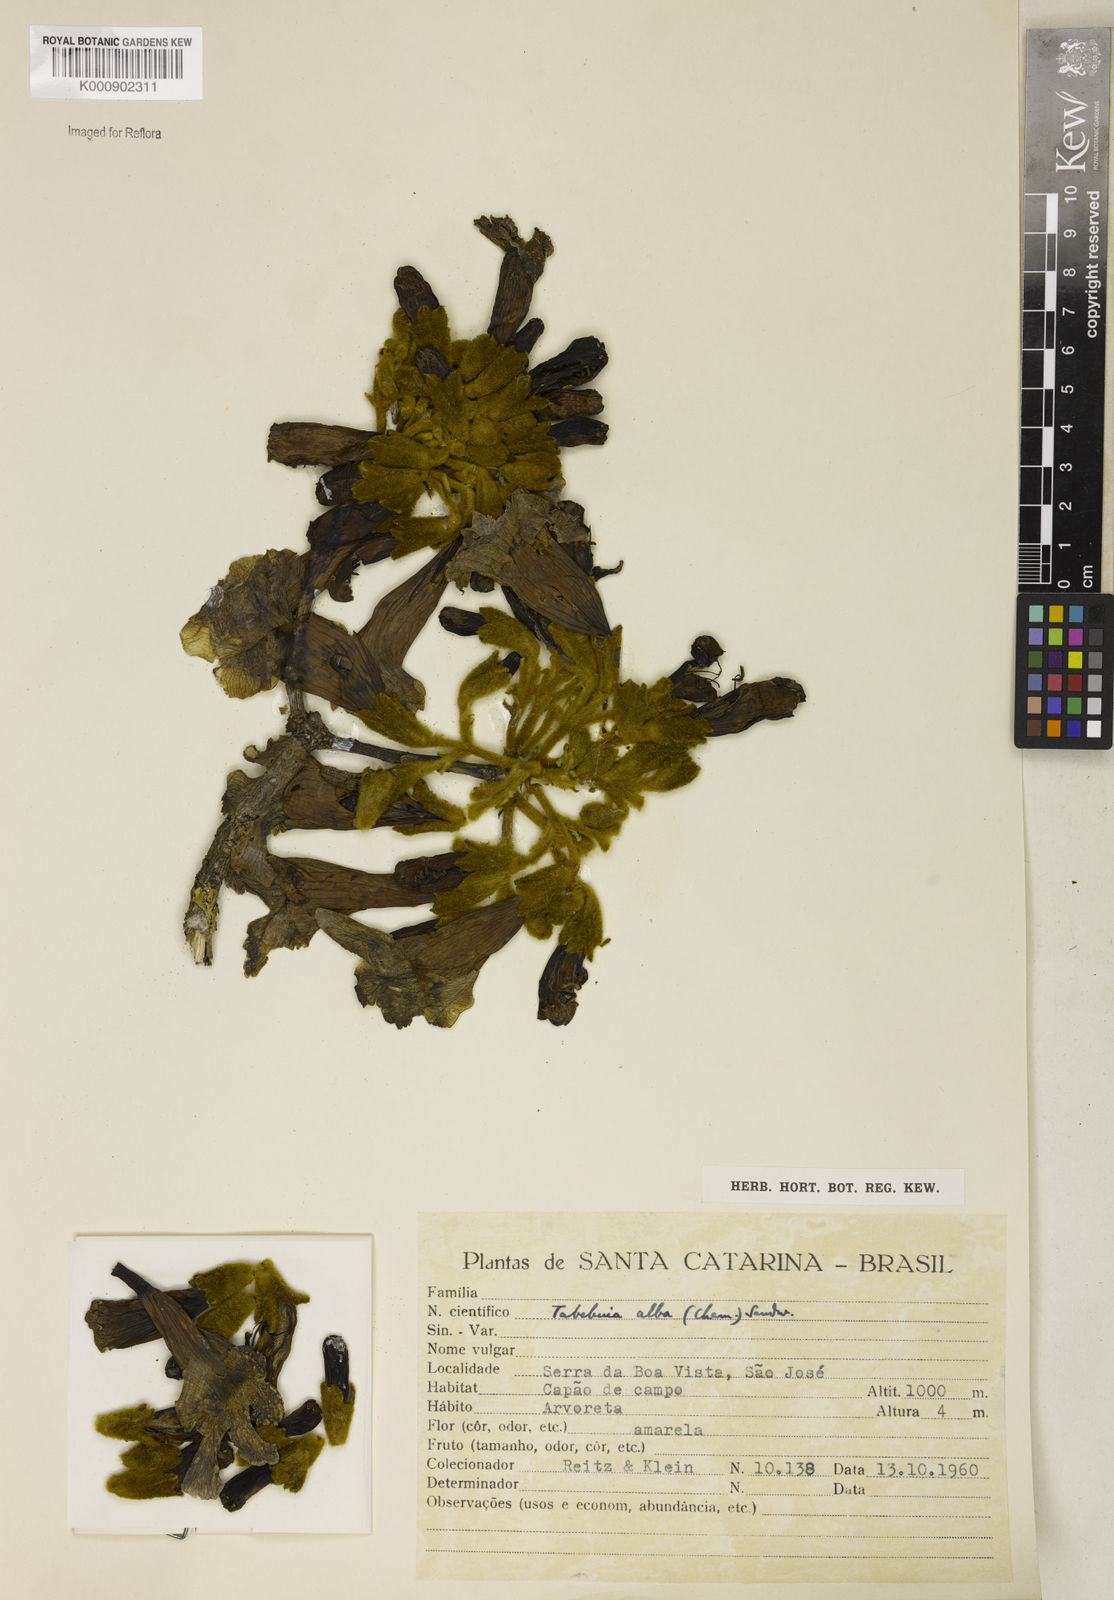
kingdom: Plantae
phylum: Tracheophyta
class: Magnoliopsida
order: Lamiales
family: Bignoniaceae
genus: Handroanthus
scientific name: Handroanthus albus
